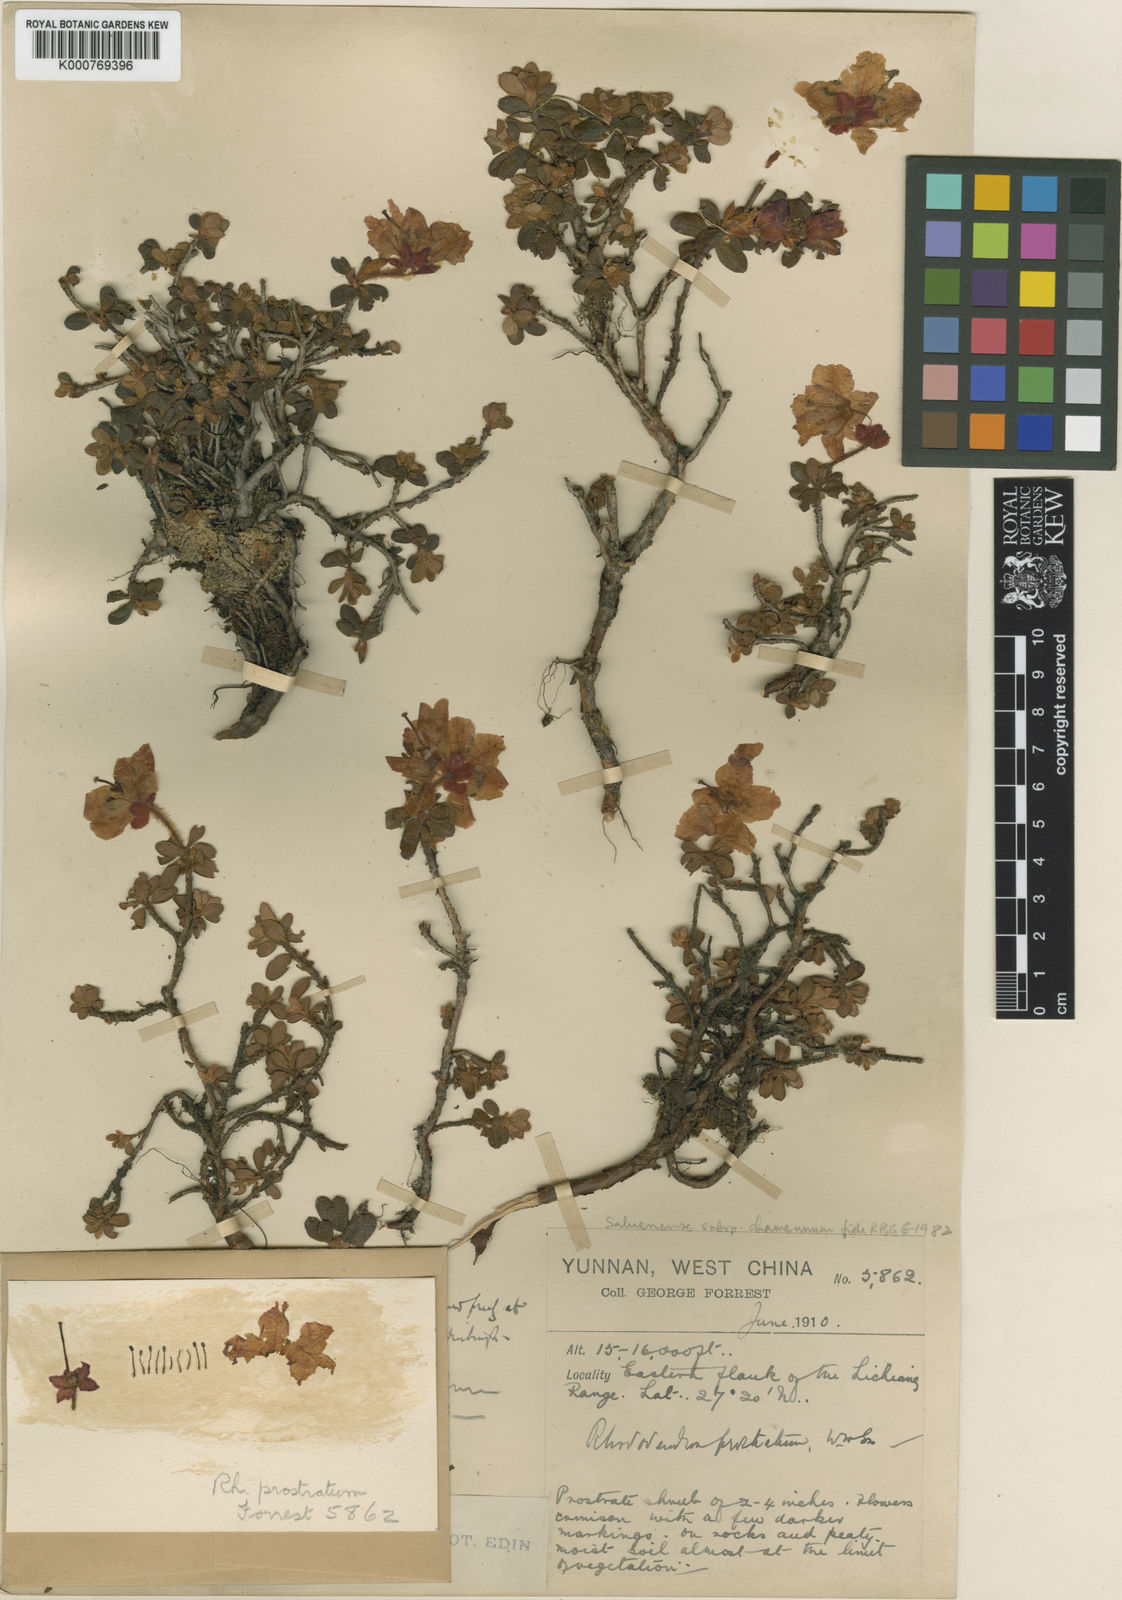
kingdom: Plantae
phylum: Tracheophyta
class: Magnoliopsida
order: Ericales
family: Ericaceae
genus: Rhododendron
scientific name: Rhododendron saluenense
